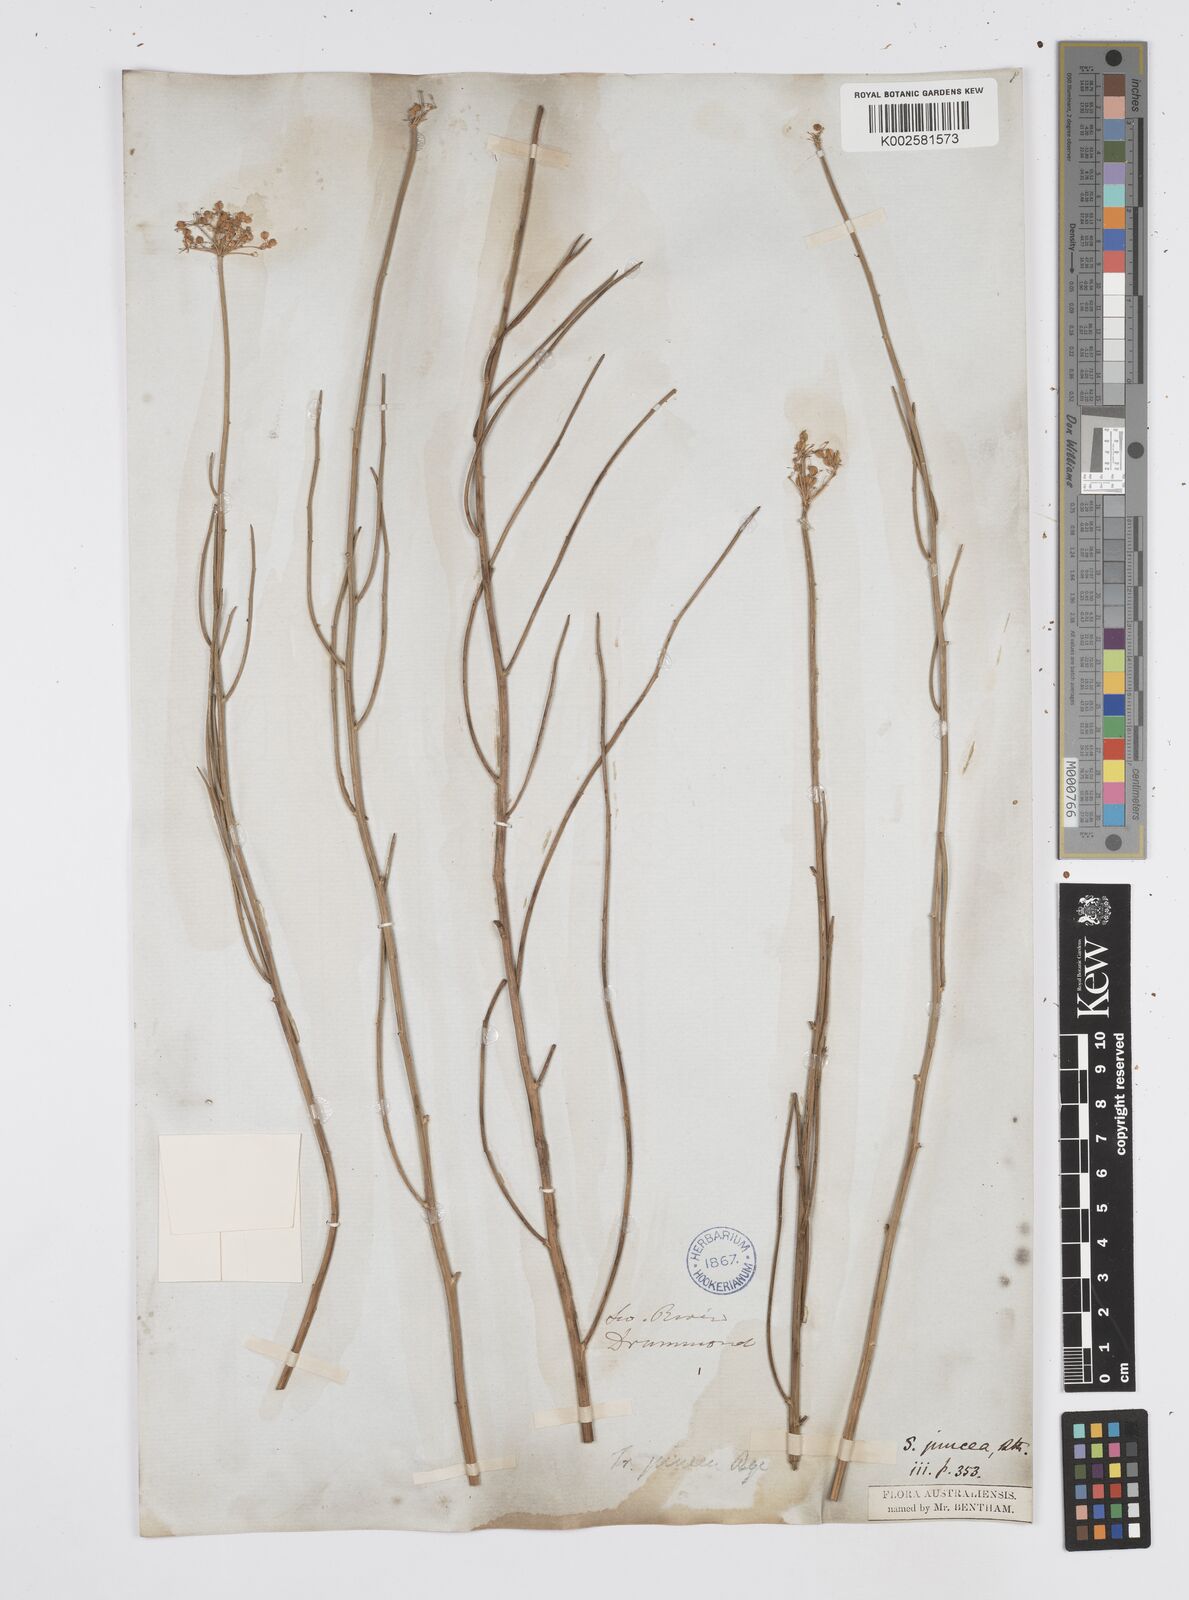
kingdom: Plantae
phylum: Tracheophyta
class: Magnoliopsida
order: Apiales
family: Apiaceae
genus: Platysace
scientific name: Platysace juncea
